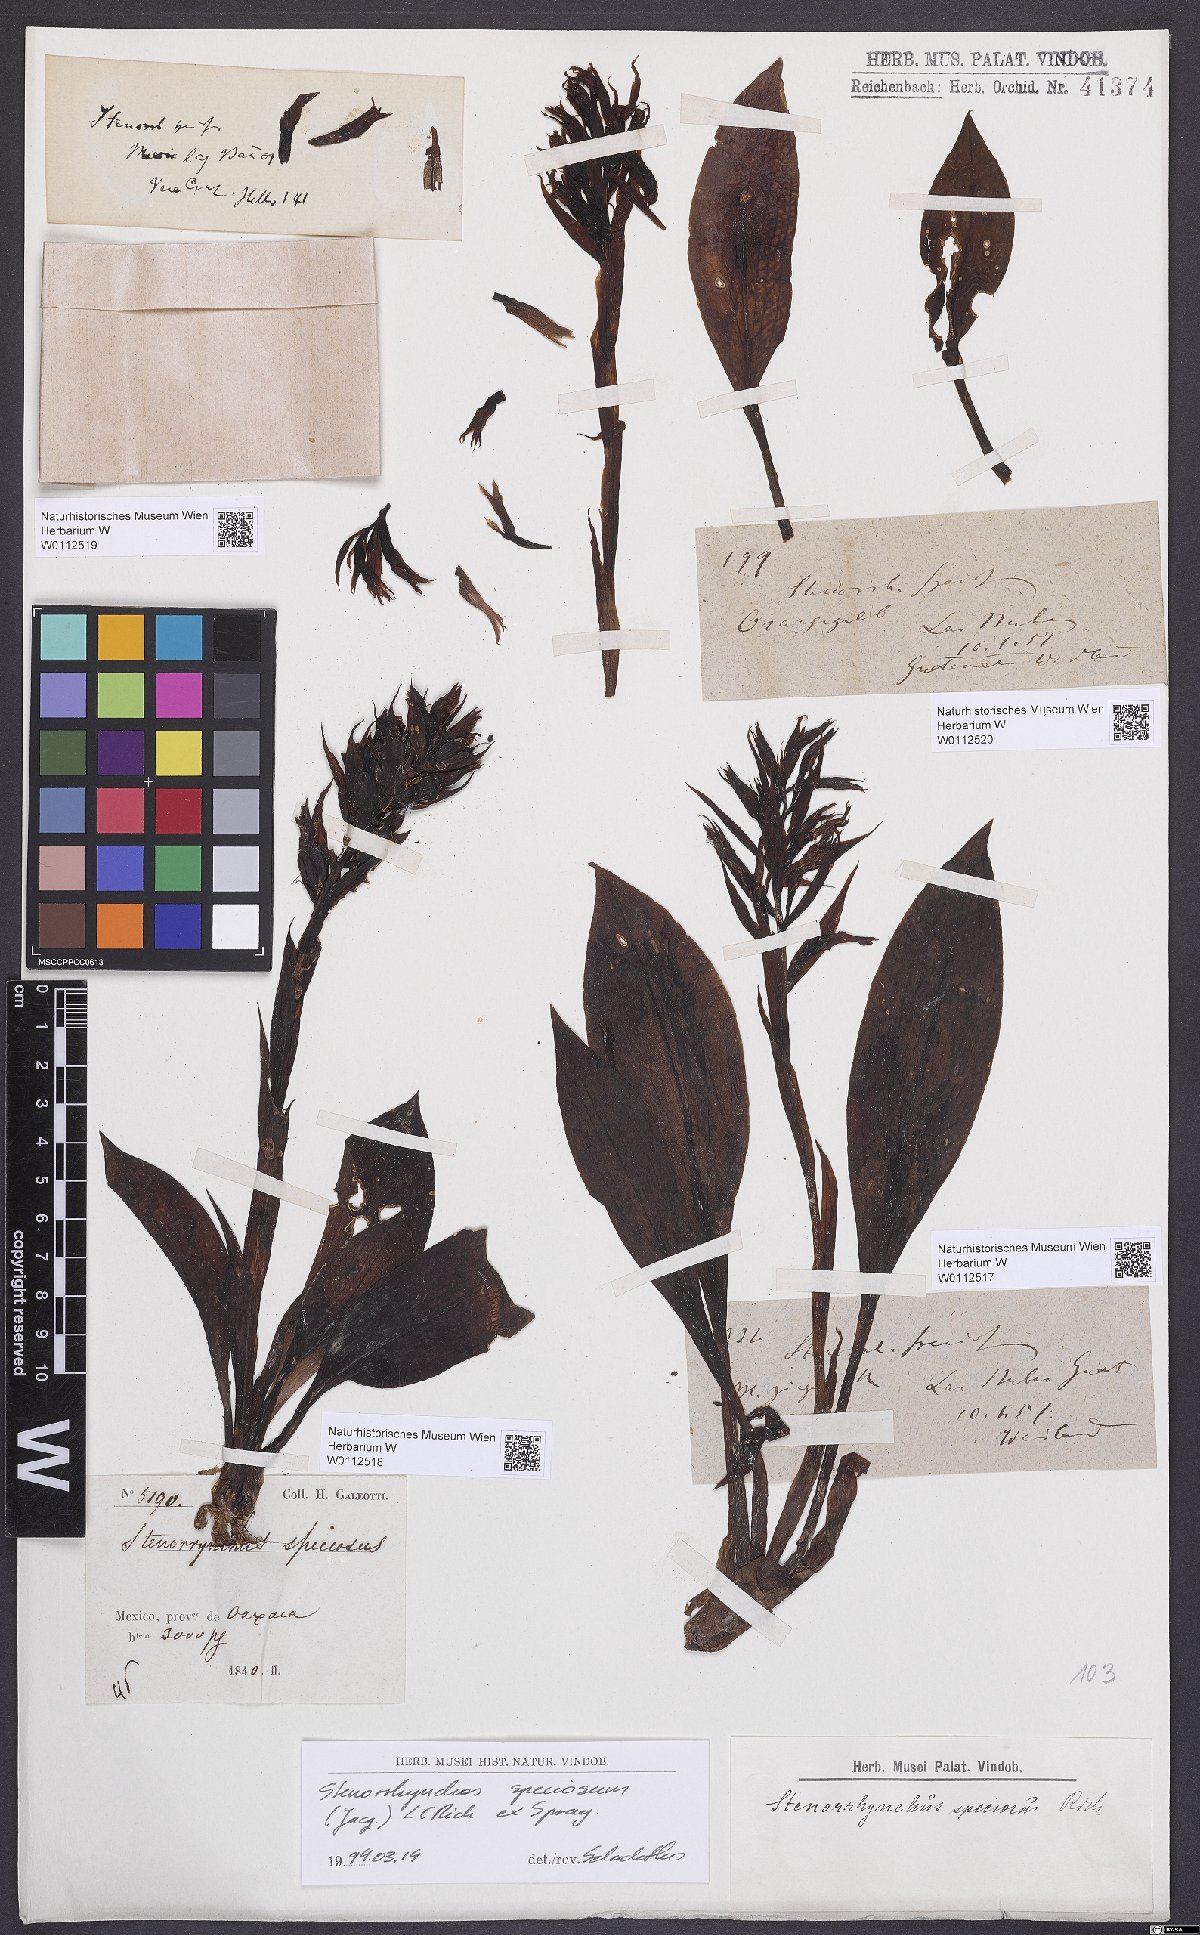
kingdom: Plantae
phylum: Tracheophyta
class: Liliopsida
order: Asparagales
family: Orchidaceae
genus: Stenorrhynchos
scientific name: Stenorrhynchos speciosum
